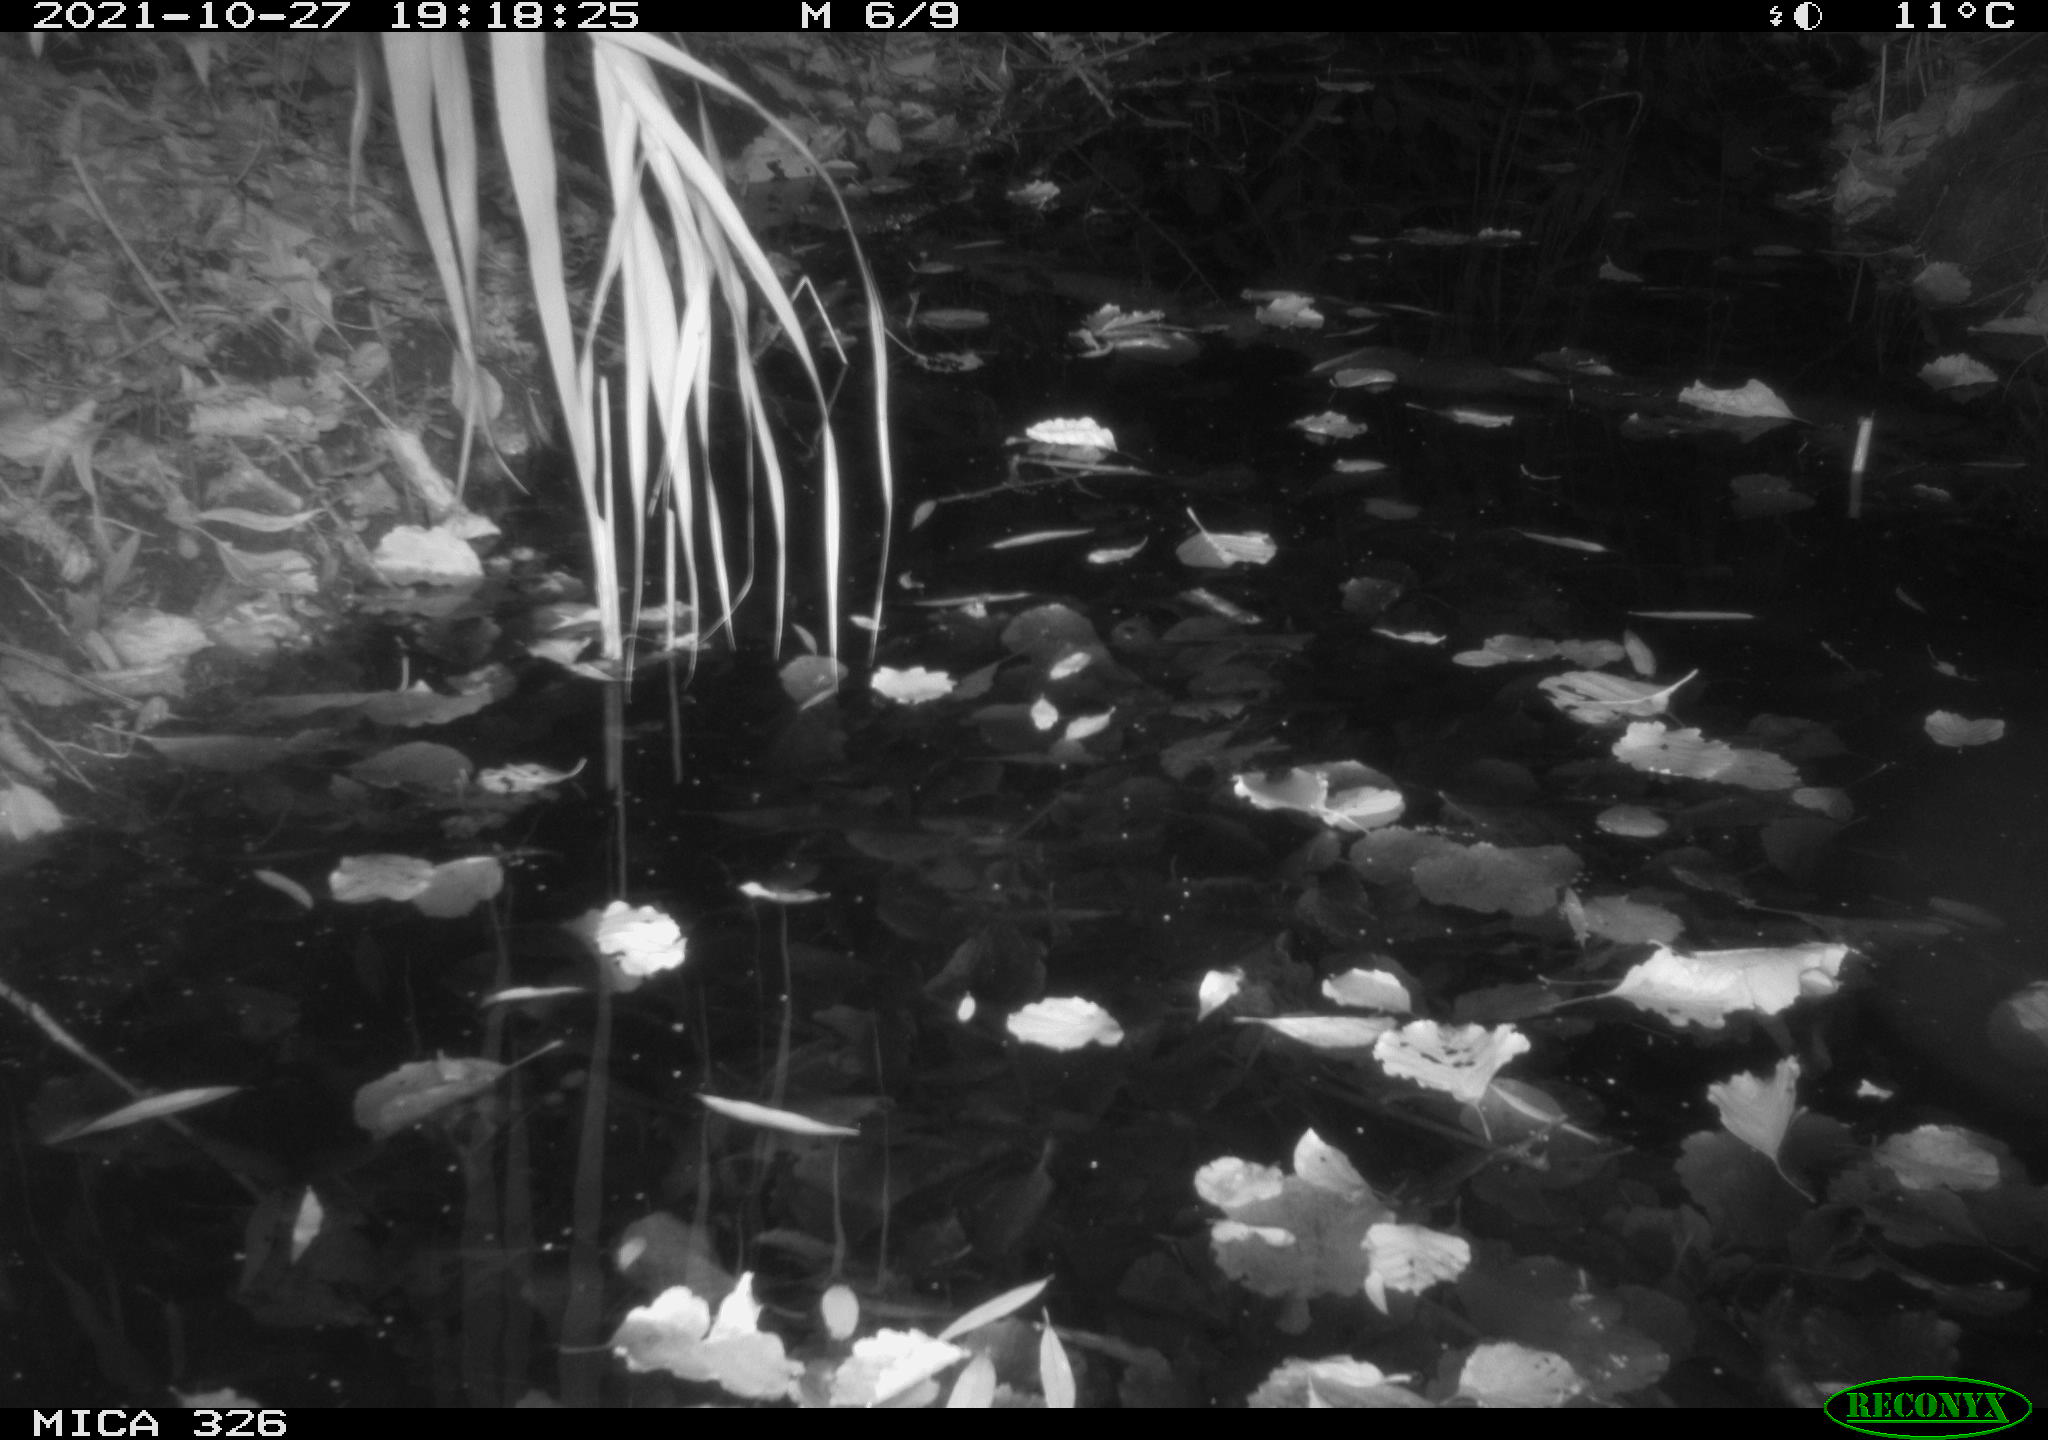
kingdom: Animalia
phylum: Chordata
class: Mammalia
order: Rodentia
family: Muridae
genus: Rattus
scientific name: Rattus norvegicus
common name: Brown rat
